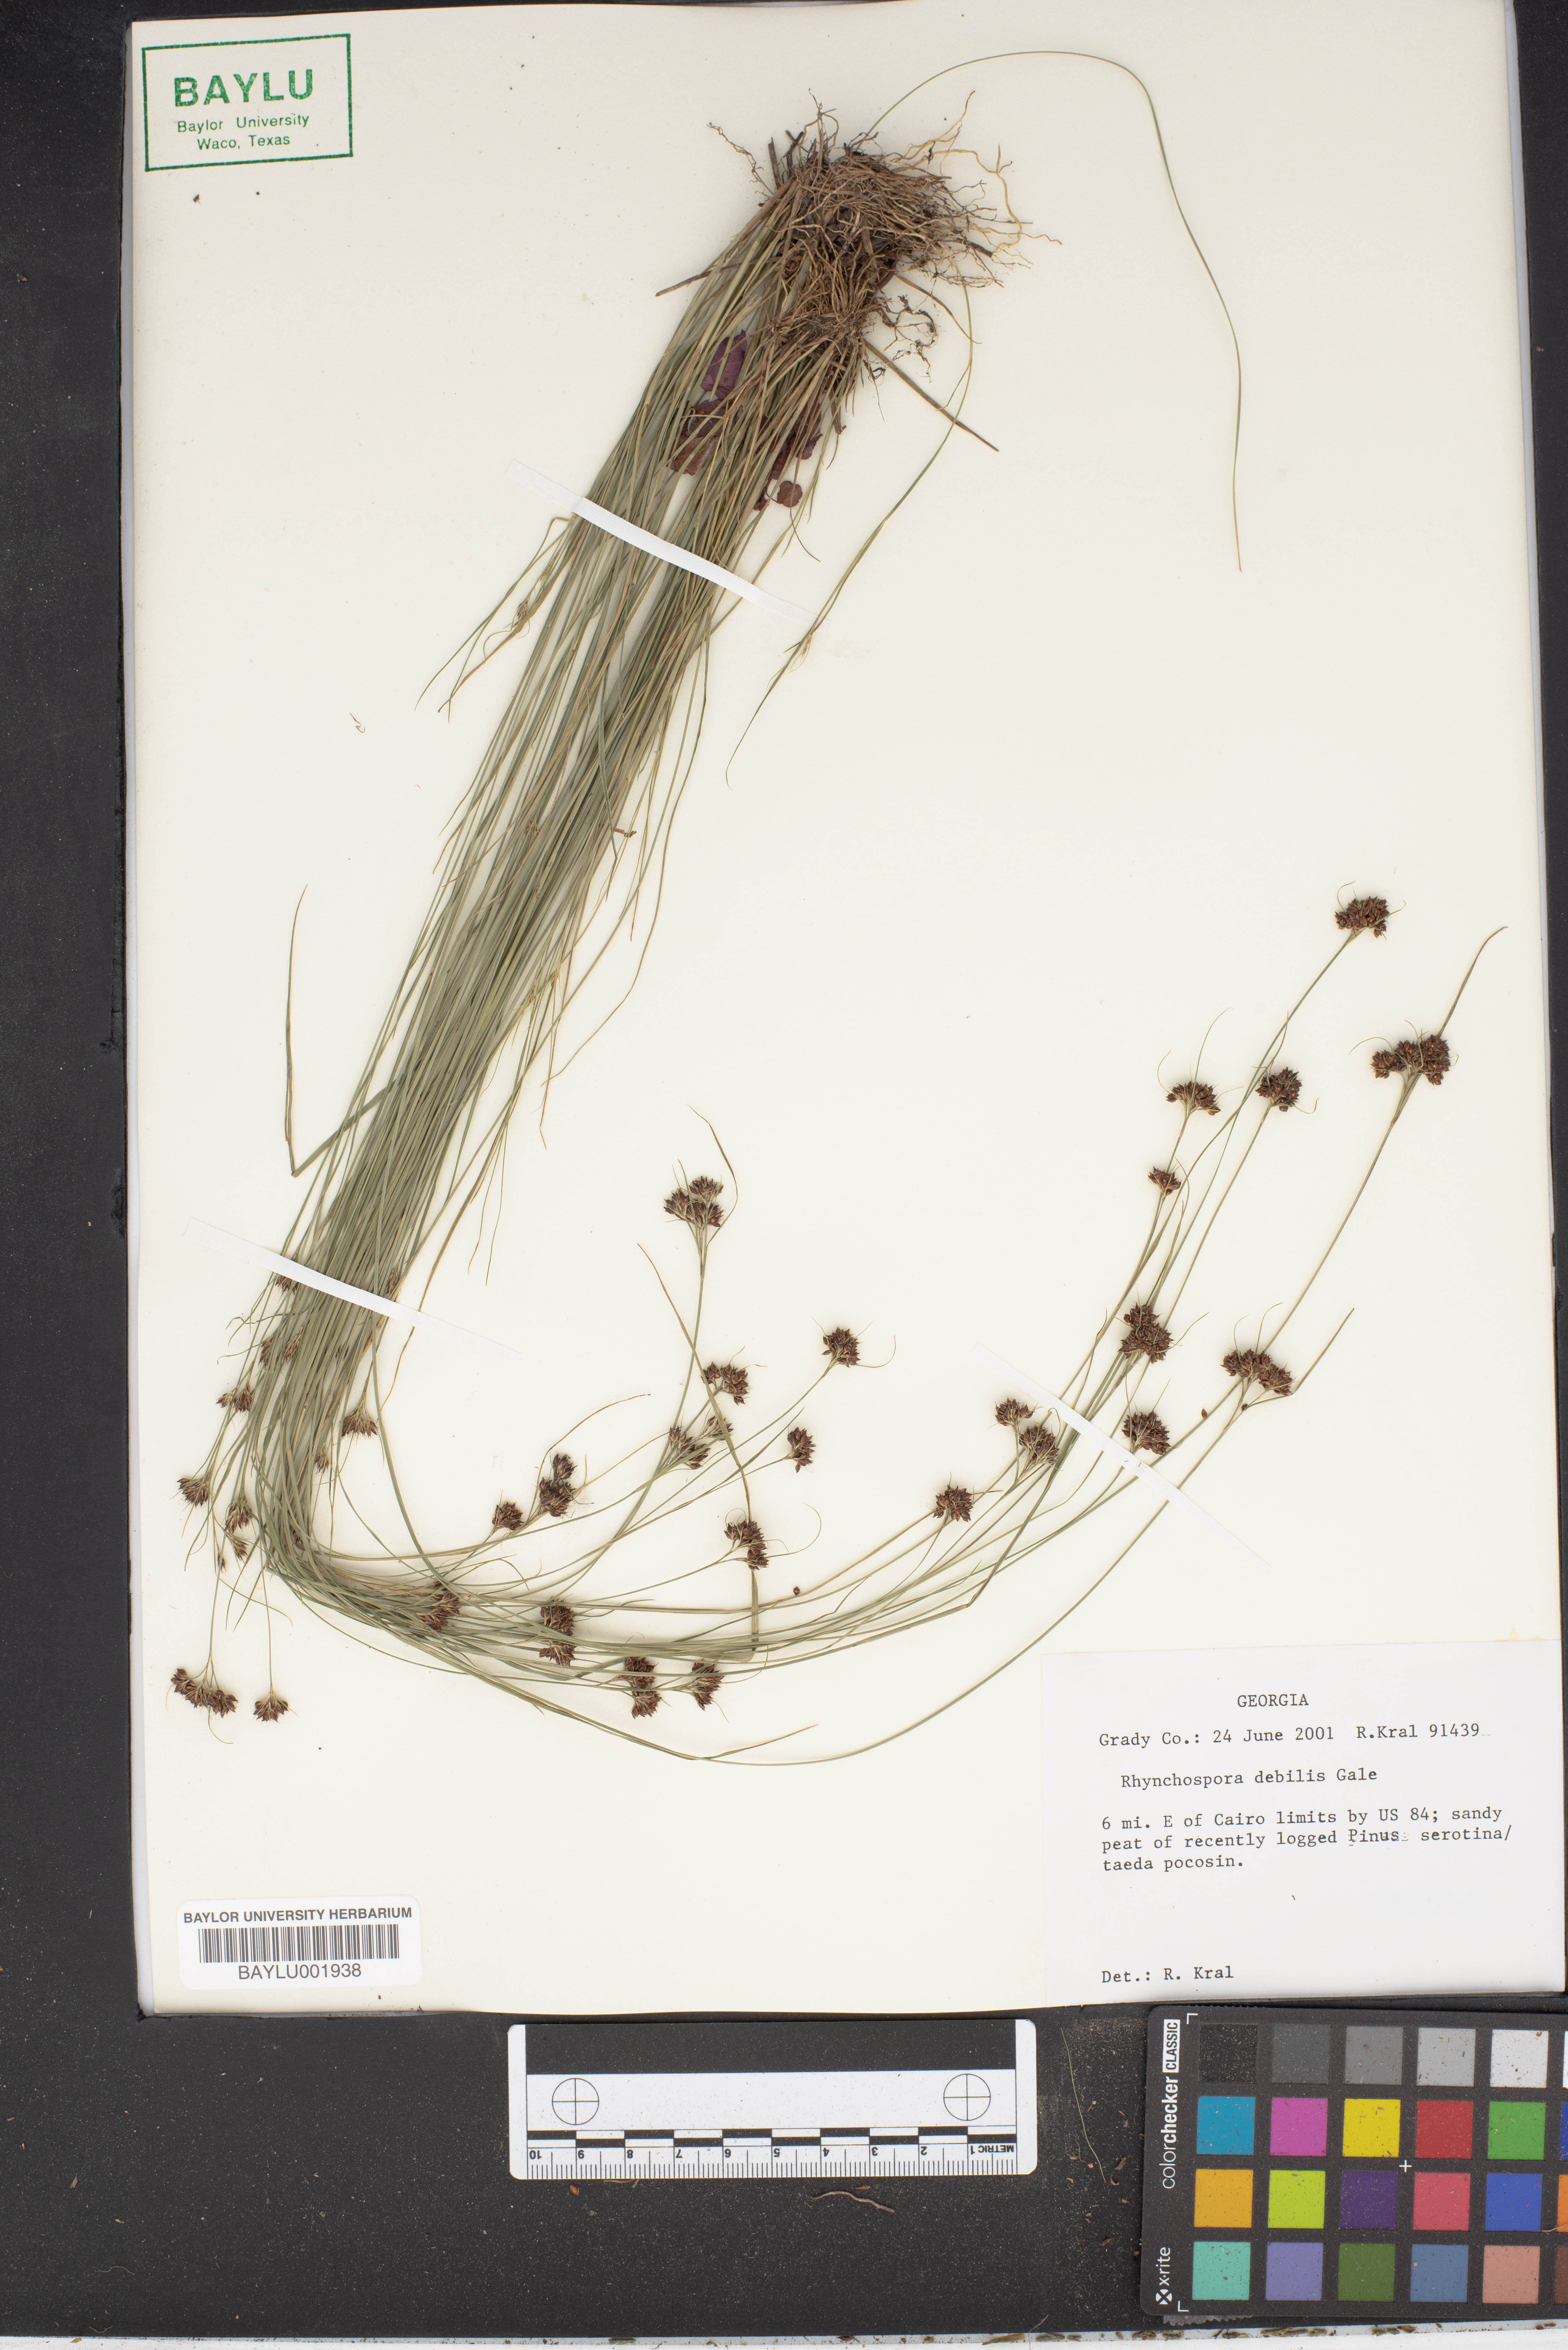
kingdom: Plantae
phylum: Tracheophyta
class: Liliopsida
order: Poales
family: Cyperaceae
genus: Rhynchospora
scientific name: Rhynchospora debilis
